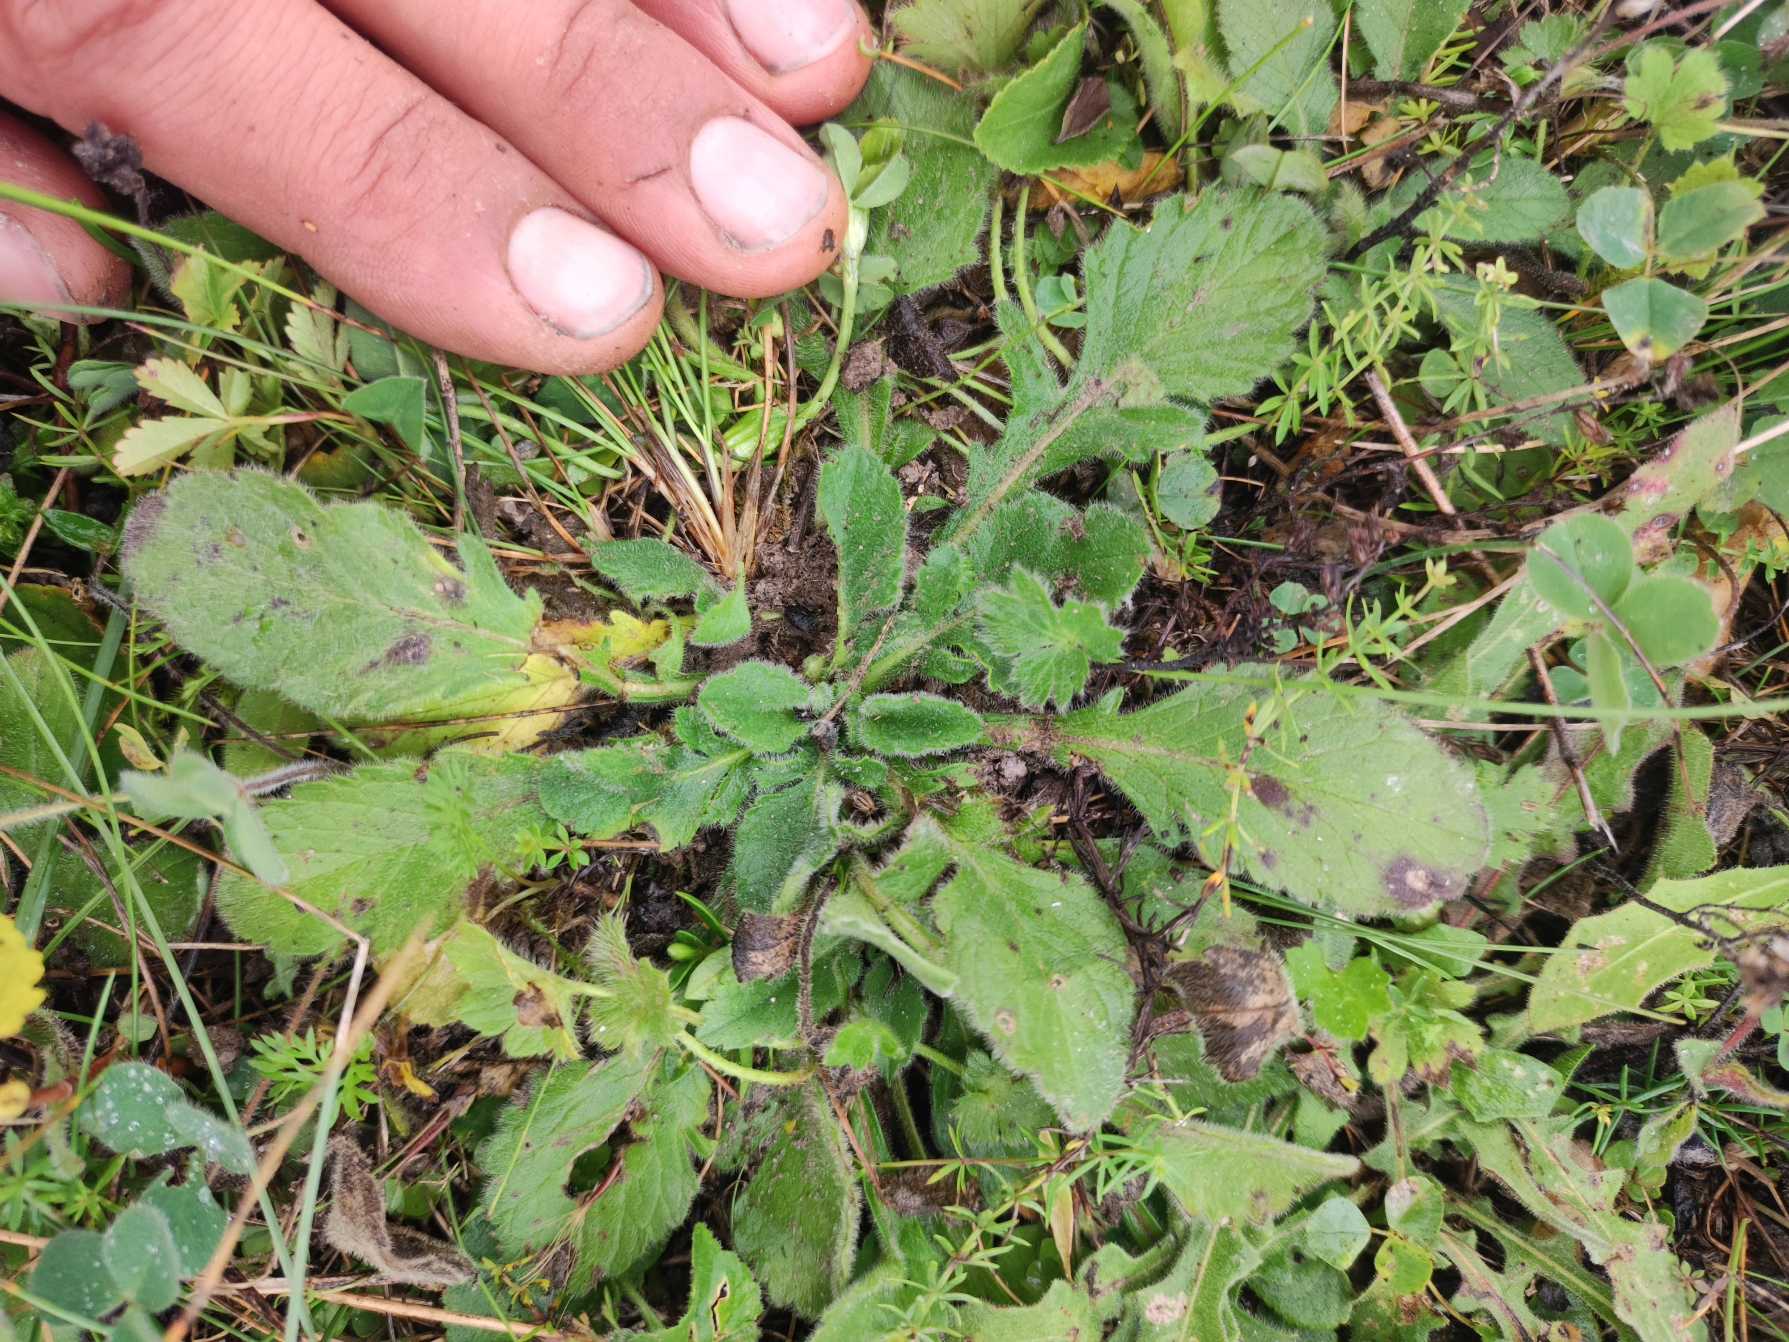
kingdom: Plantae
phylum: Tracheophyta
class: Magnoliopsida
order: Dipsacales
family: Caprifoliaceae
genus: Scabiosa
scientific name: Scabiosa columbaria
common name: Due-skabiose
